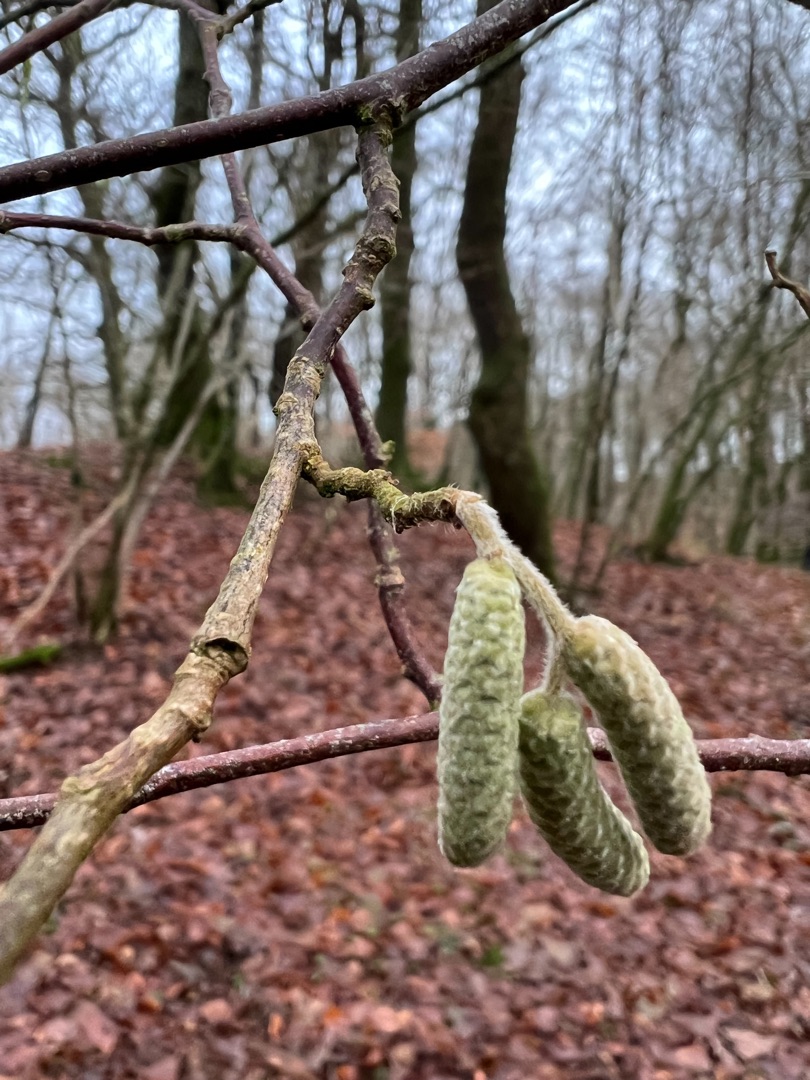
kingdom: Plantae
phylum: Tracheophyta
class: Magnoliopsida
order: Fagales
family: Betulaceae
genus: Corylus
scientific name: Corylus avellana
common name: Hassel
